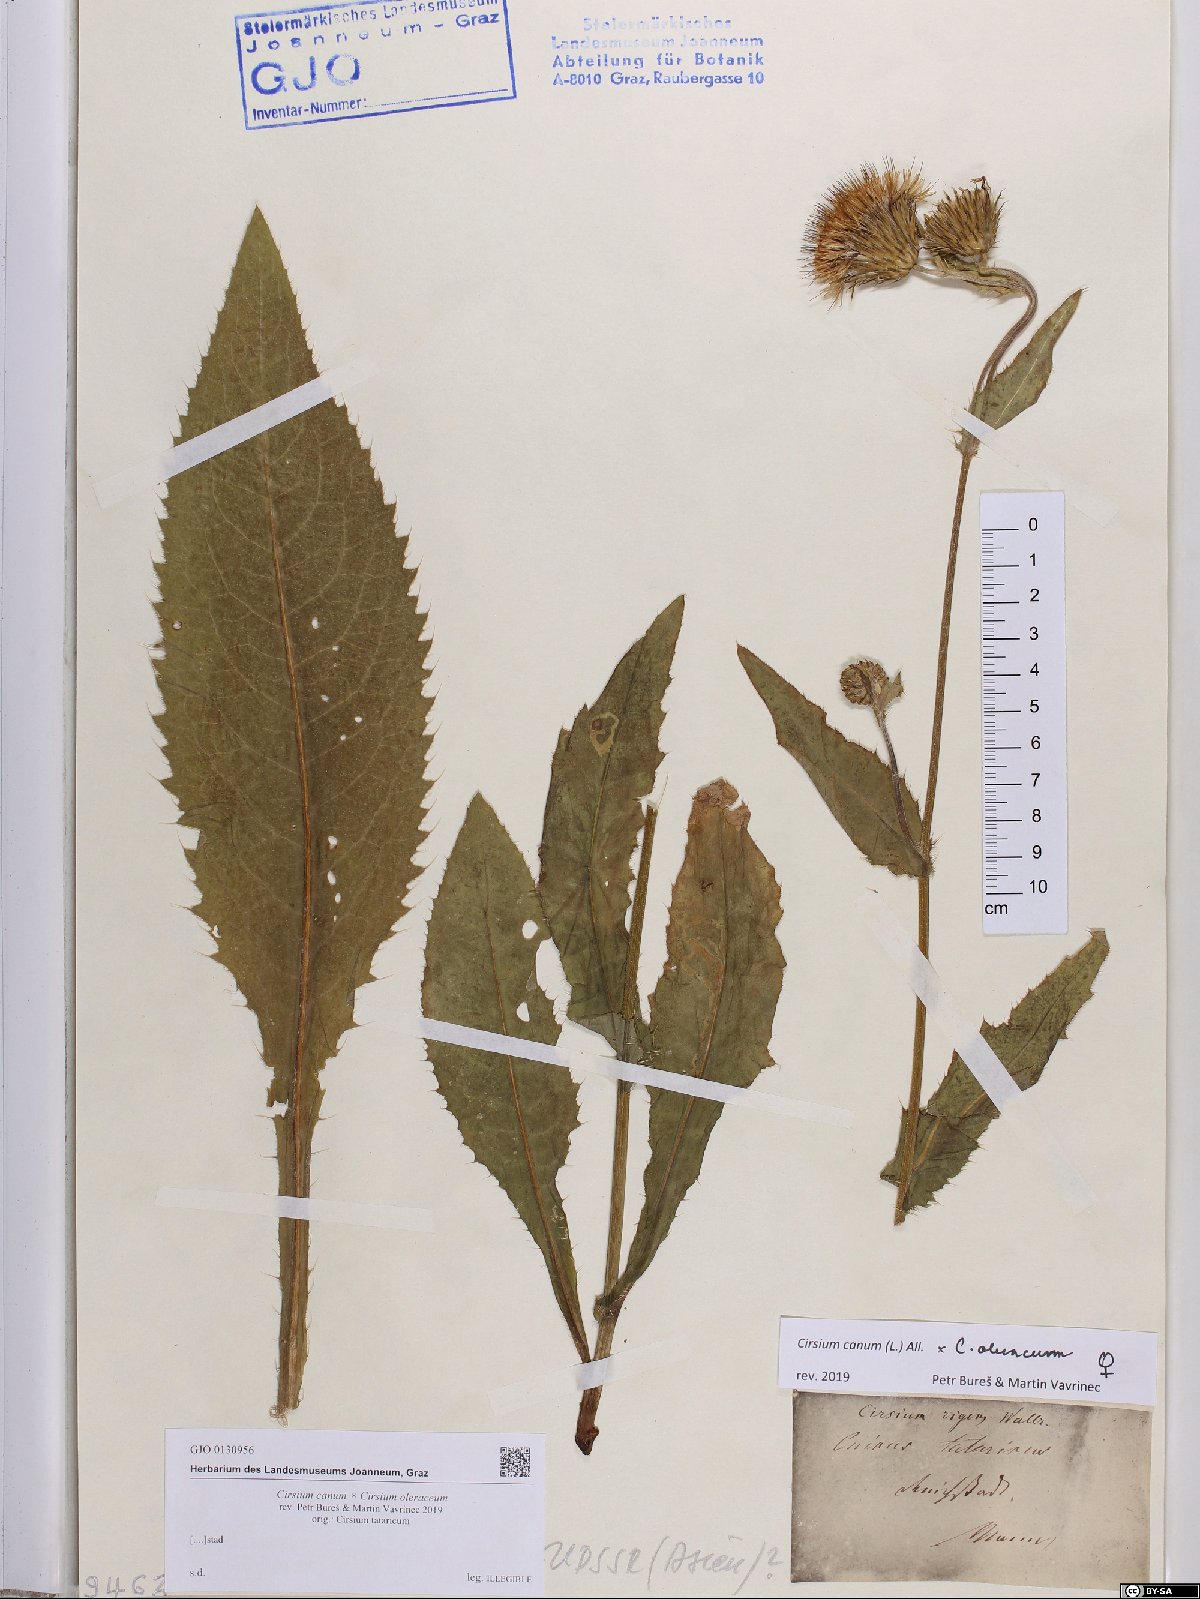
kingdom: Plantae
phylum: Tracheophyta
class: Magnoliopsida
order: Asterales
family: Asteraceae
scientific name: Asteraceae
